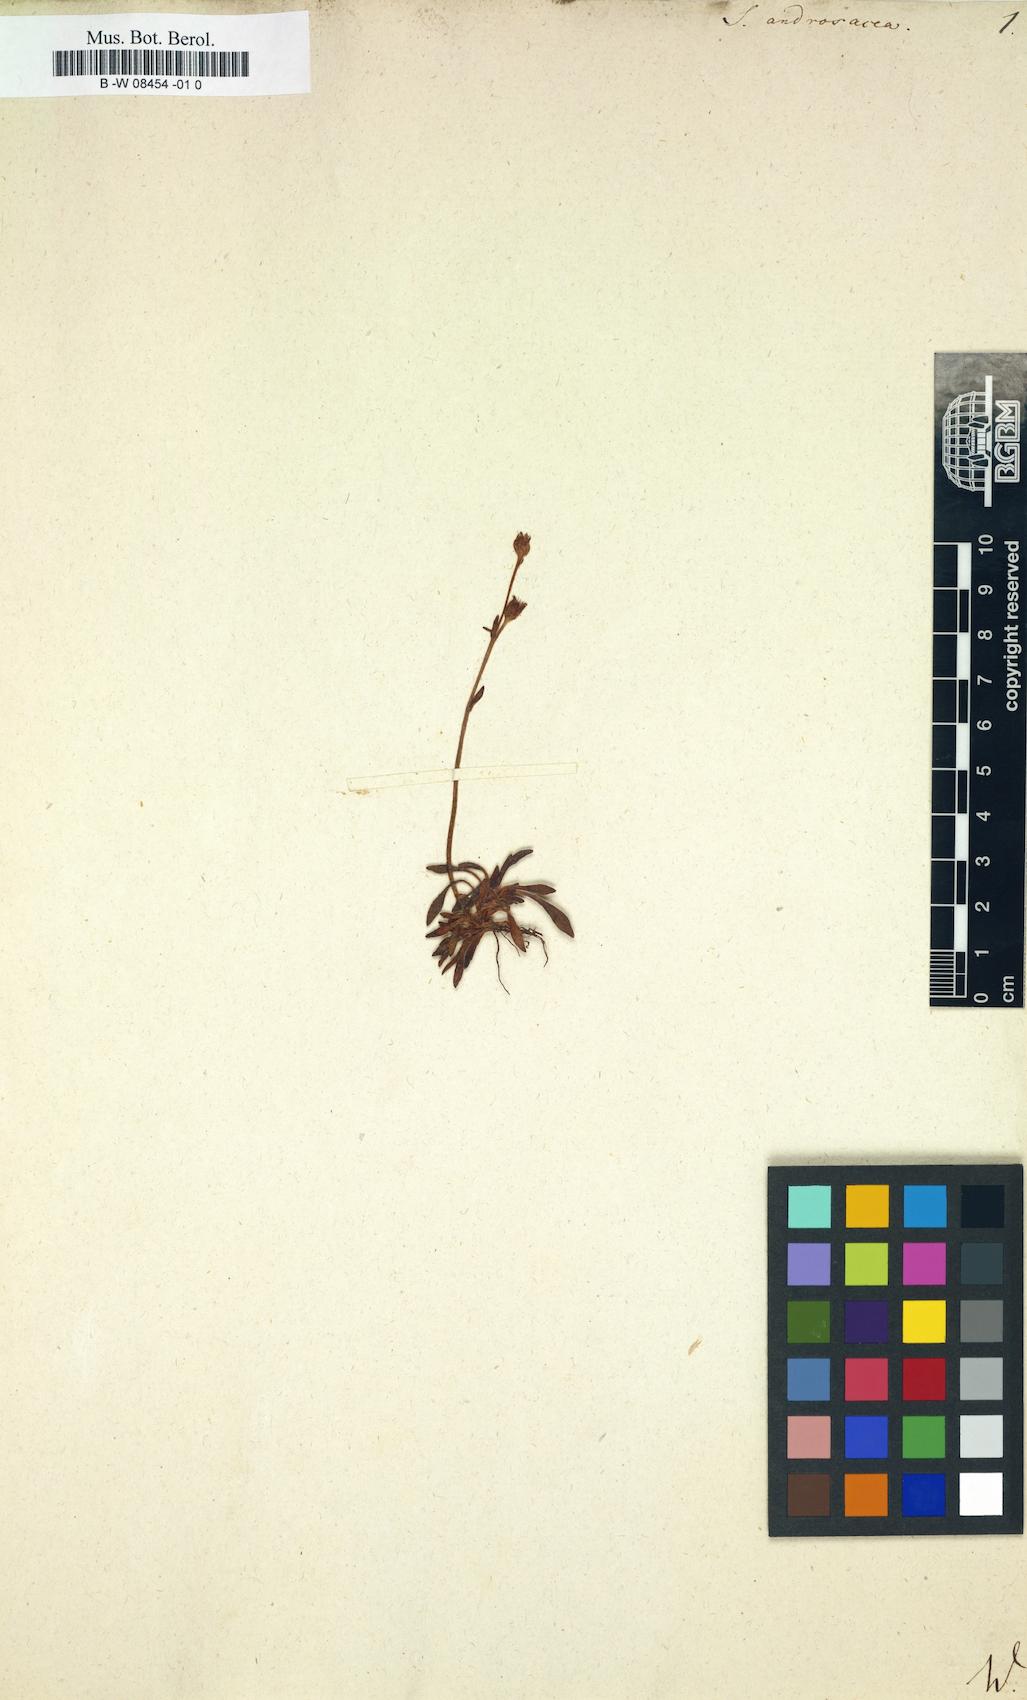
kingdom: Plantae
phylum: Tracheophyta
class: Magnoliopsida
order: Saxifragales
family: Saxifragaceae
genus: Saxifraga
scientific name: Saxifraga androsacea
